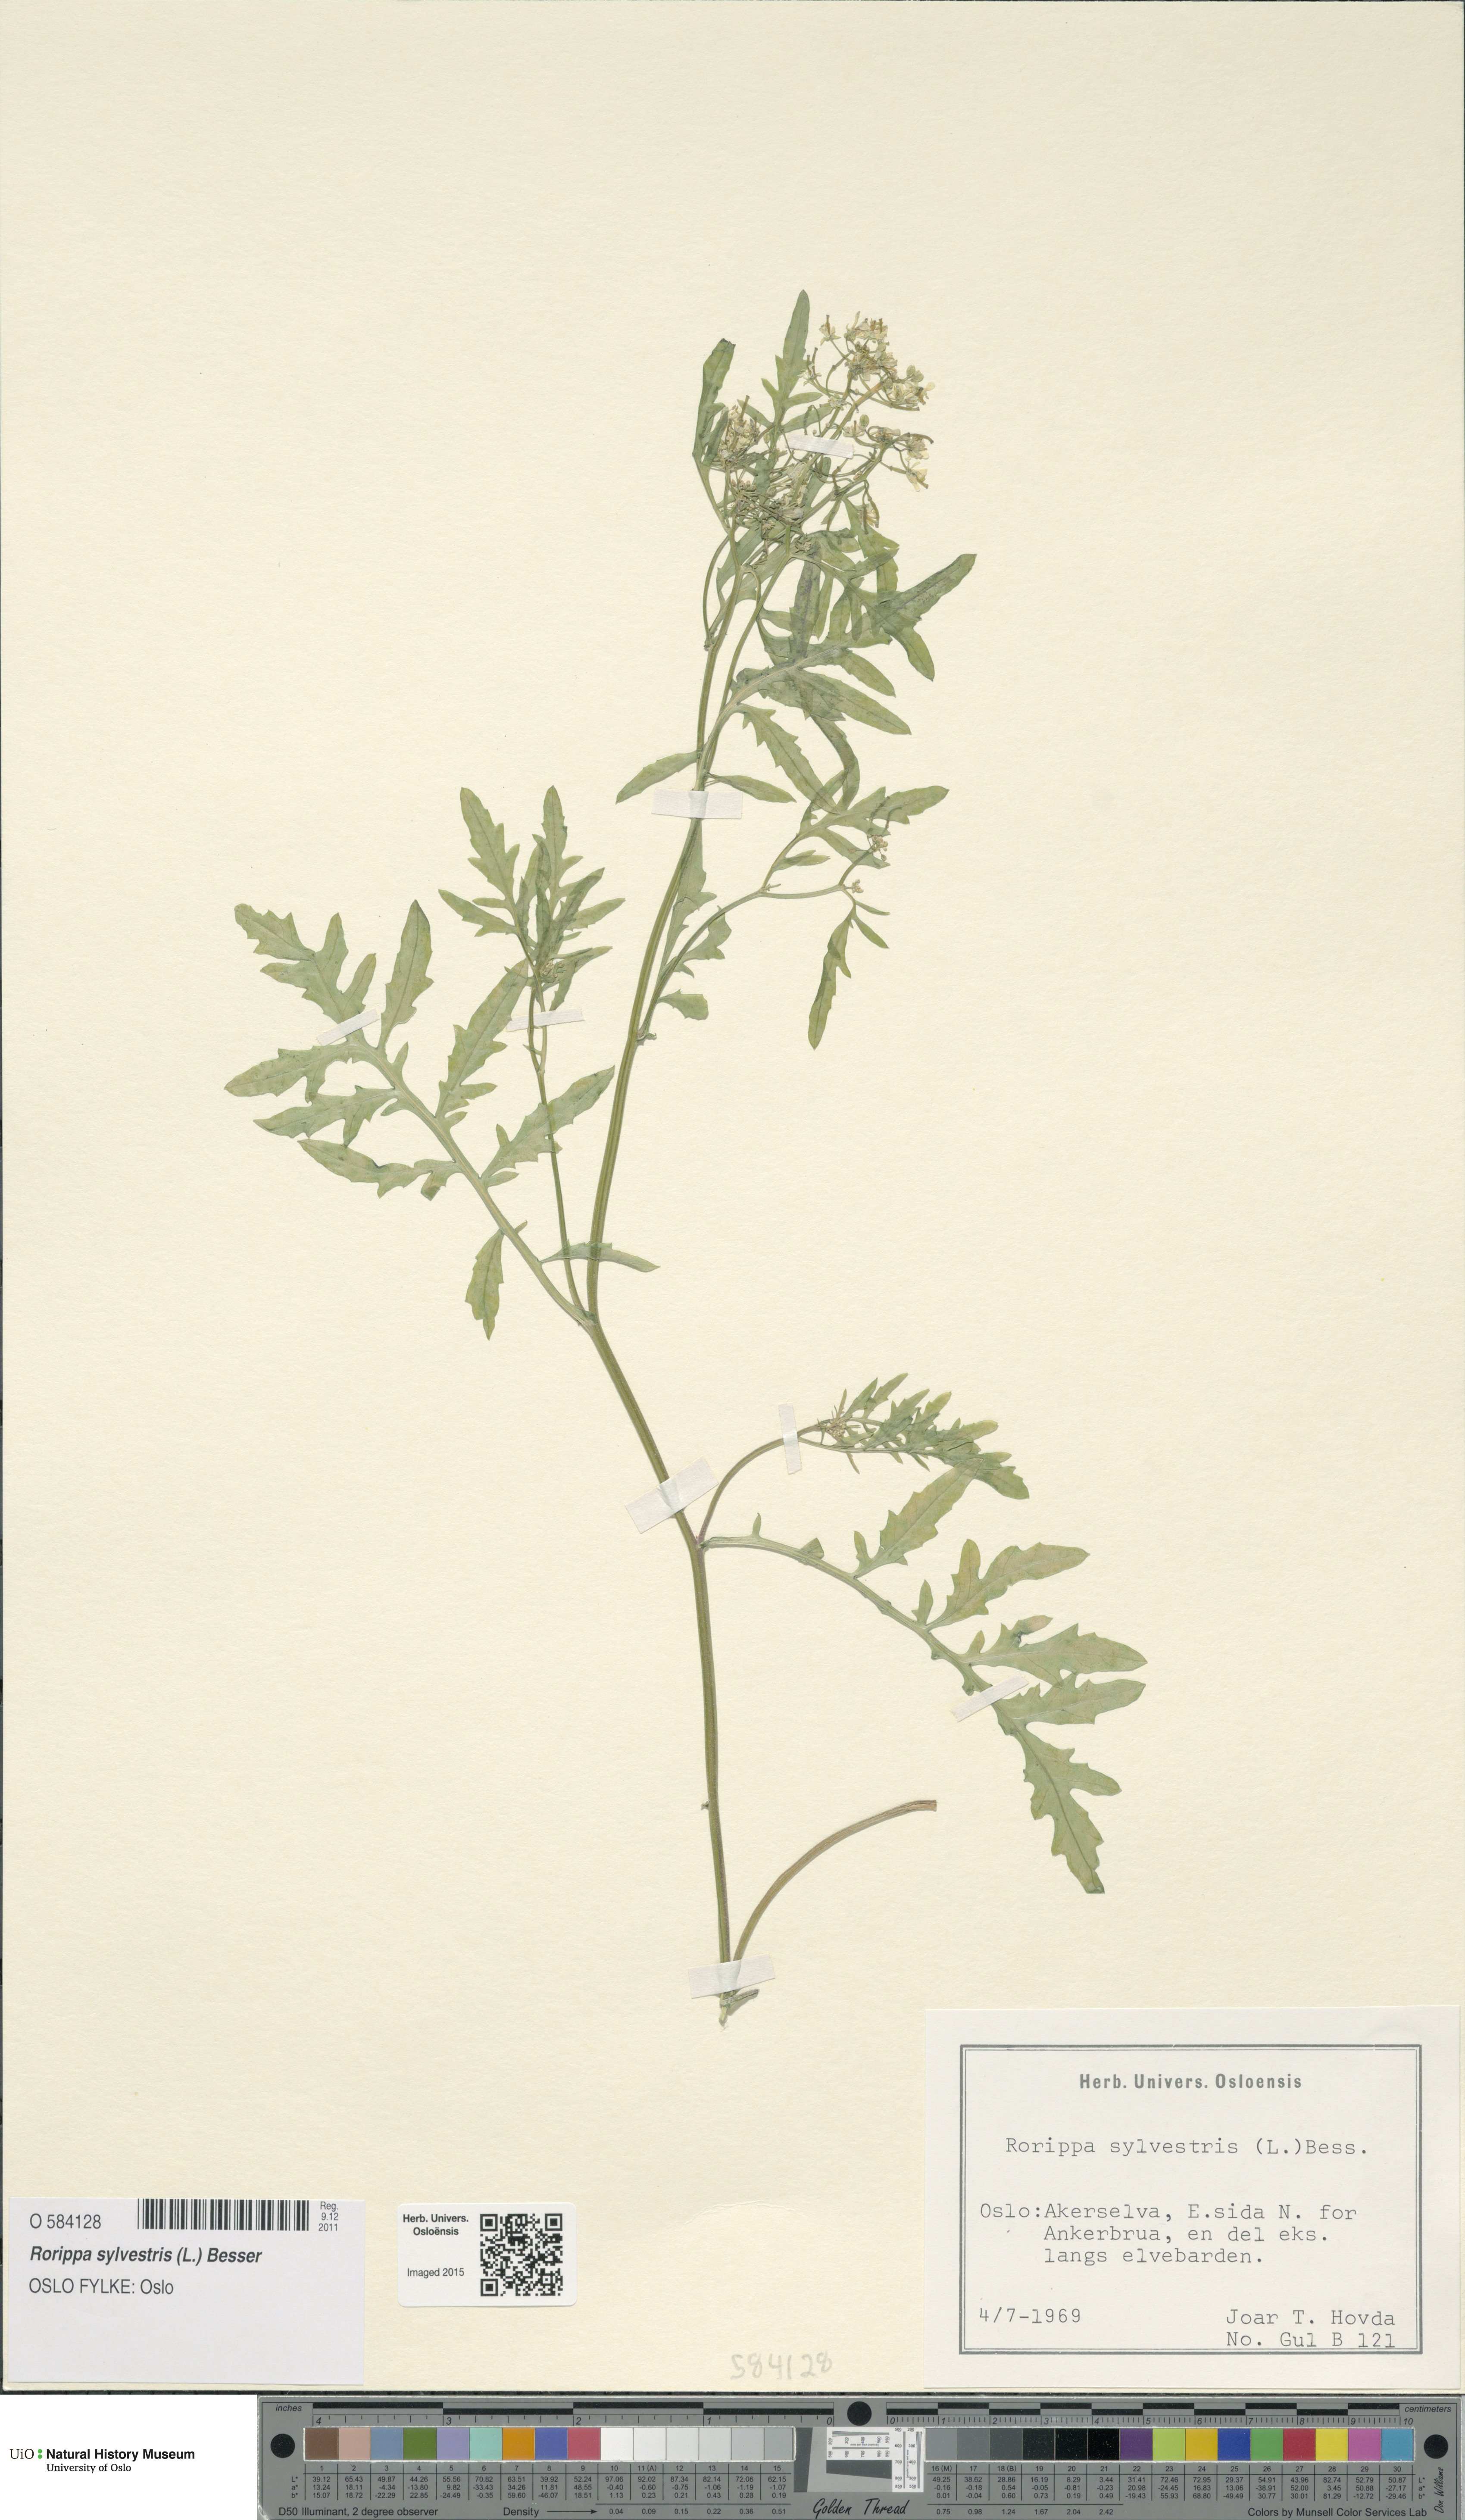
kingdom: Plantae
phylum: Tracheophyta
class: Magnoliopsida
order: Brassicales
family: Brassicaceae
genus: Rorippa
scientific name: Rorippa sylvestris
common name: Creeping yellowcress
